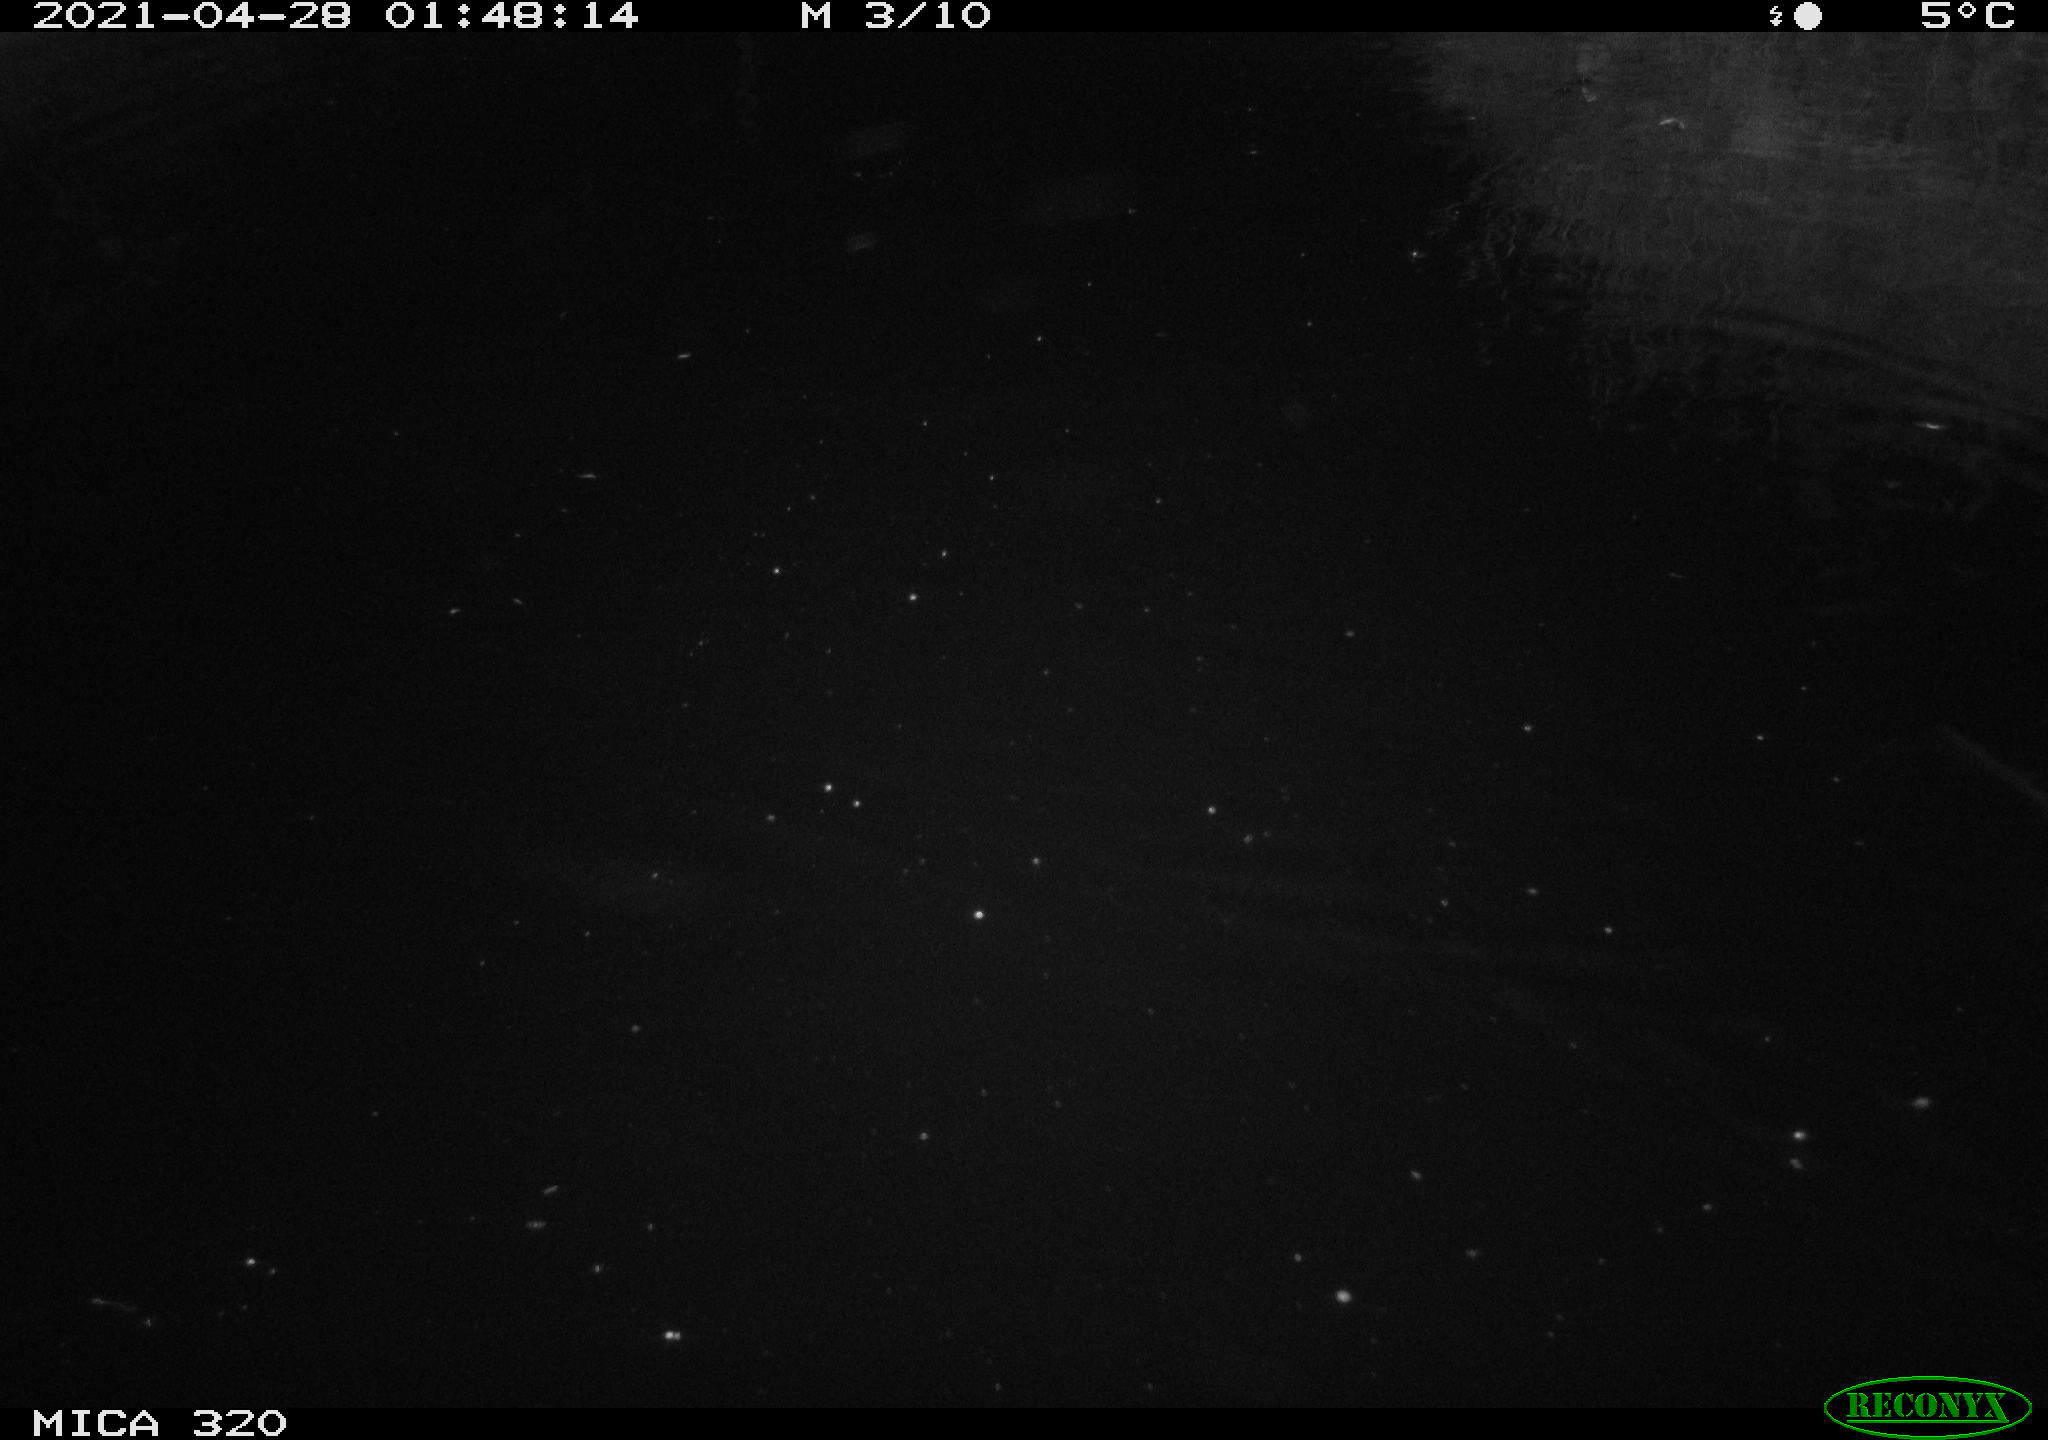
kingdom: Animalia
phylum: Chordata
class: Aves
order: Gruiformes
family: Rallidae
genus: Gallinula
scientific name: Gallinula chloropus
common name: Common moorhen
